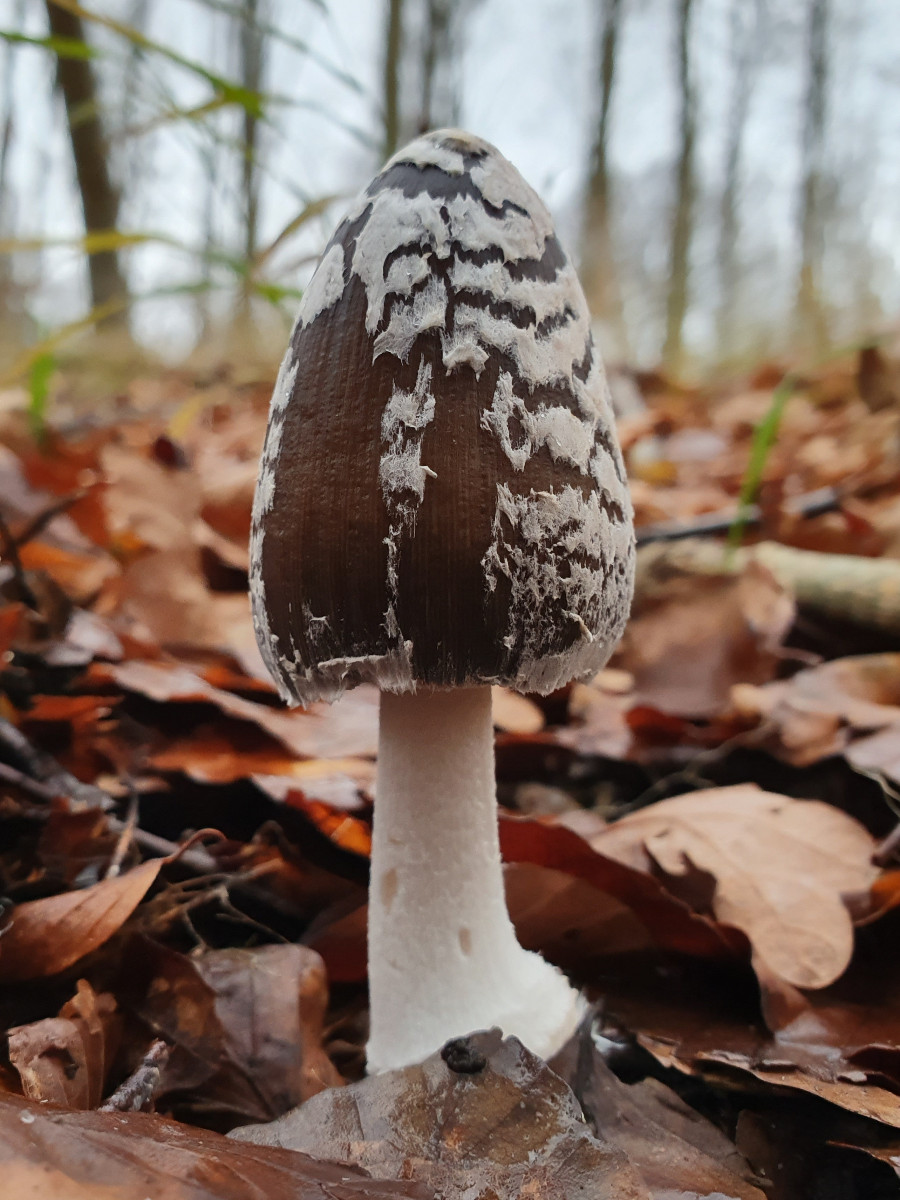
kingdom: Fungi
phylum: Basidiomycota
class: Agaricomycetes
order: Agaricales
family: Psathyrellaceae
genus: Coprinopsis
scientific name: Coprinopsis picacea
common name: skade-blækhat
